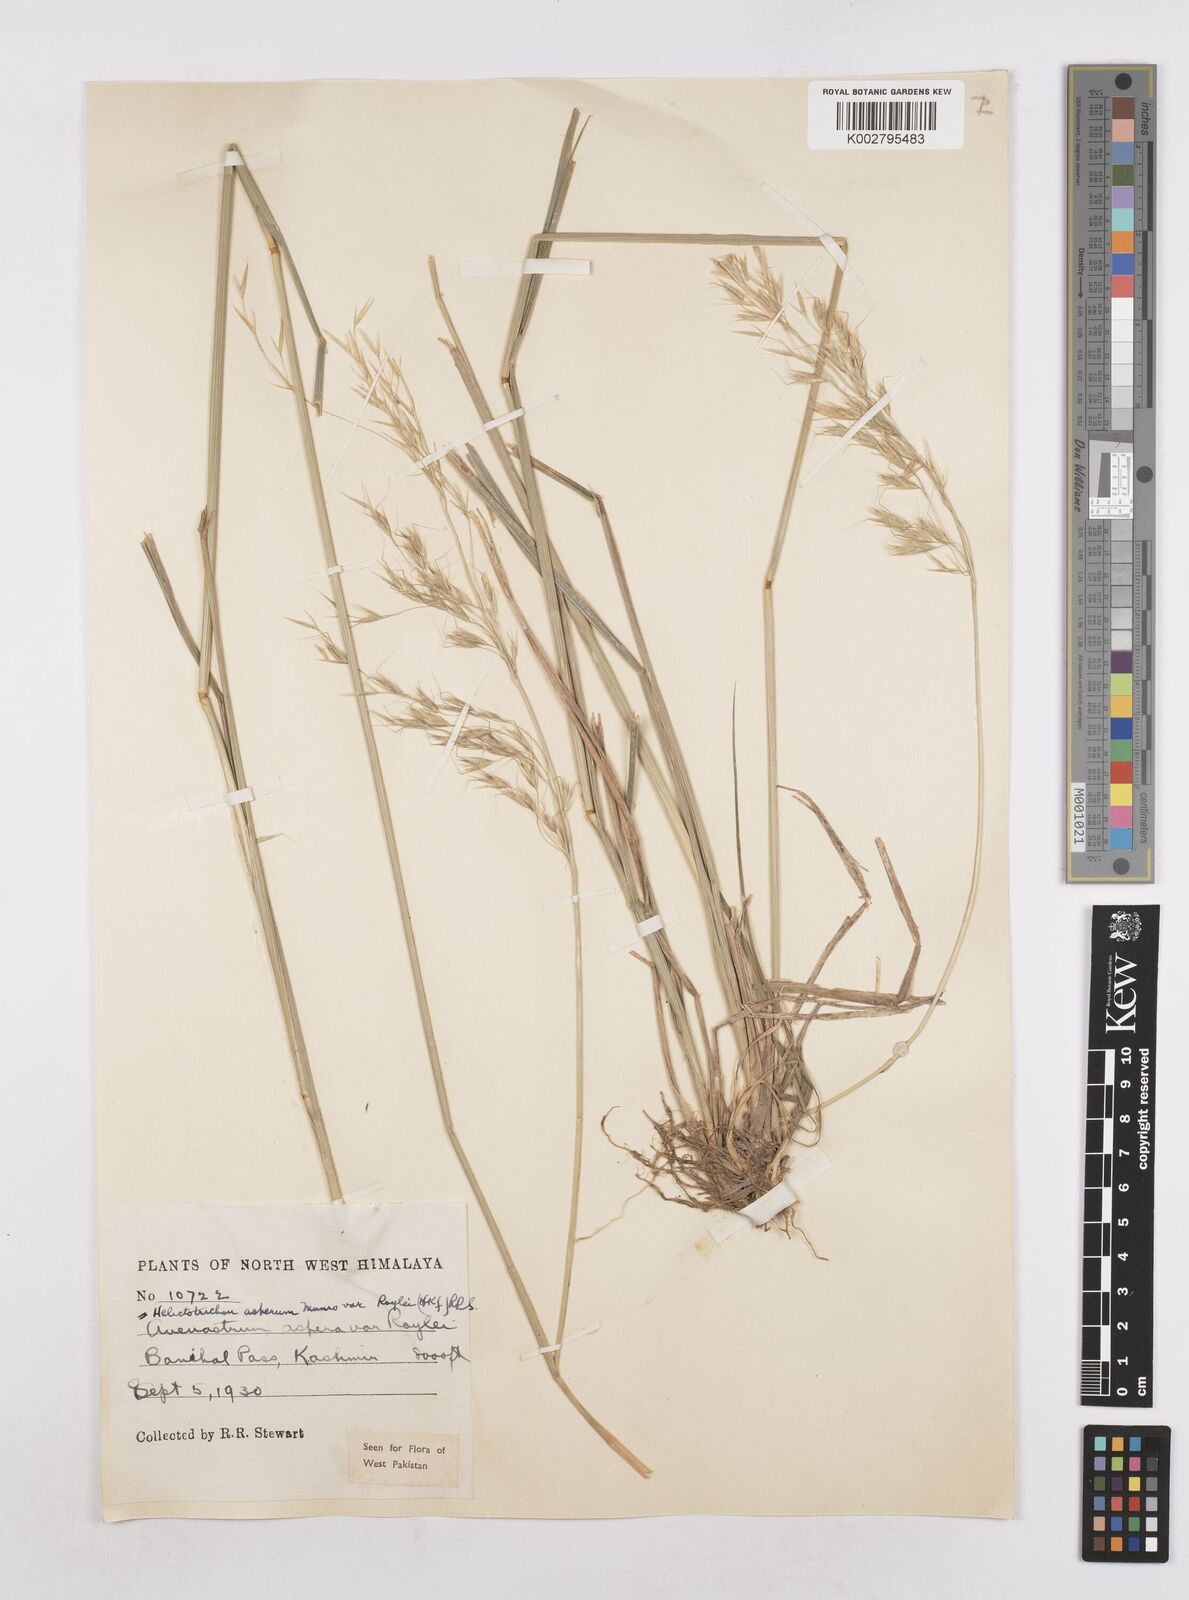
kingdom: Plantae
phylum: Tracheophyta
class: Liliopsida
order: Poales
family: Poaceae
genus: Trisetopsis
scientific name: Trisetopsis junghuhnii
